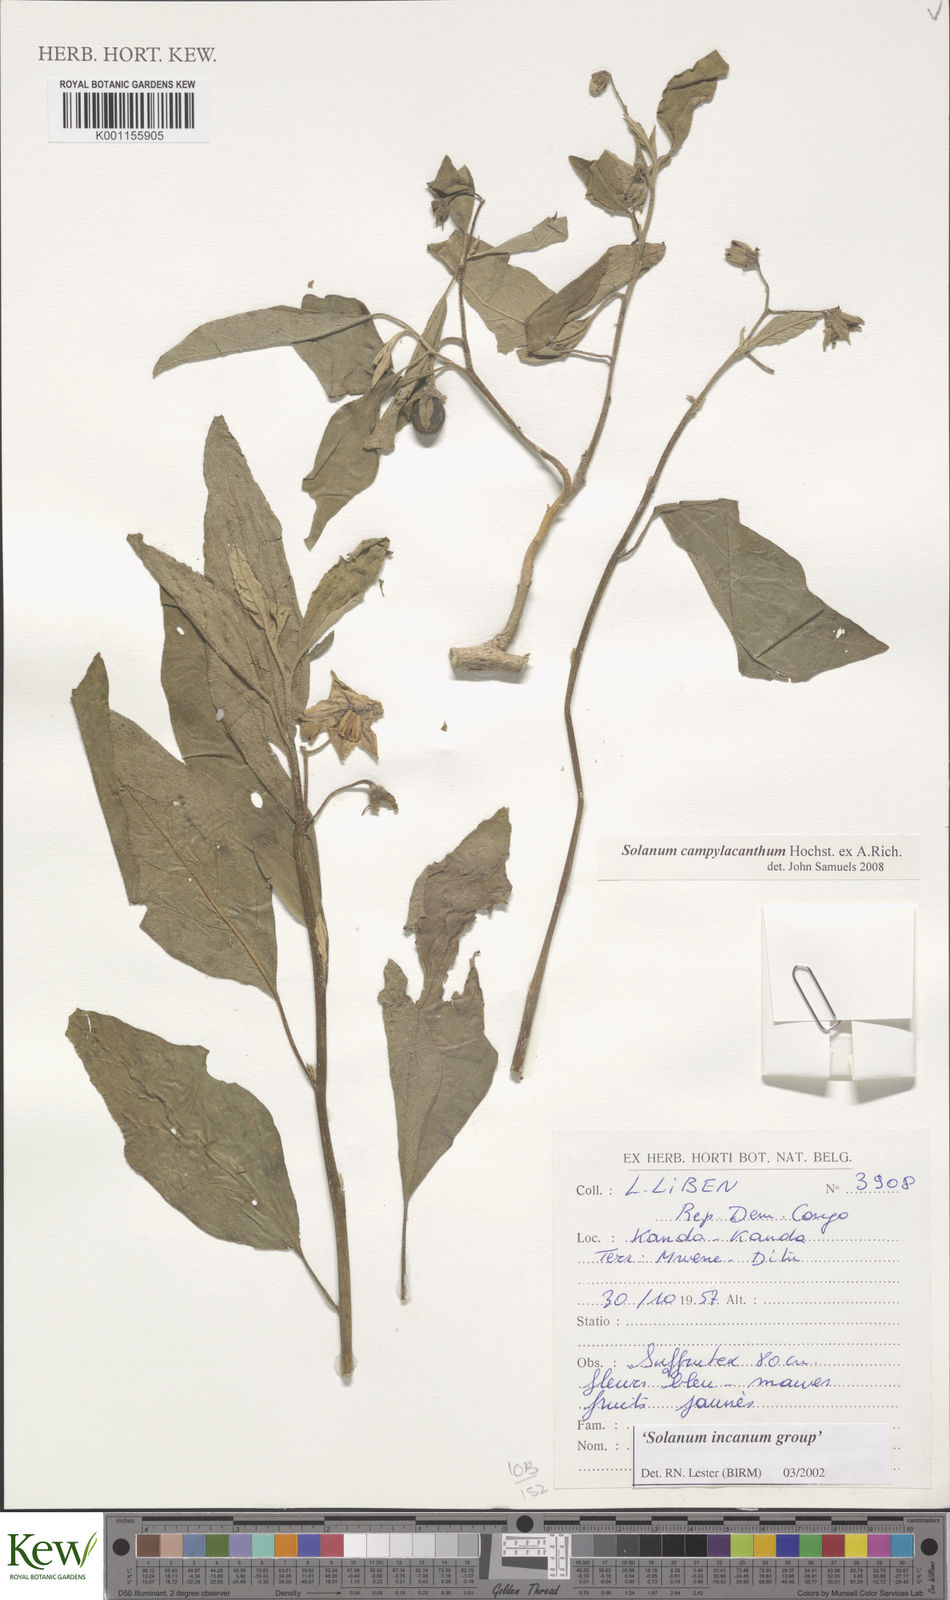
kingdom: Plantae
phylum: Tracheophyta
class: Magnoliopsida
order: Solanales
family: Solanaceae
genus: Solanum
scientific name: Solanum campylacanthum
